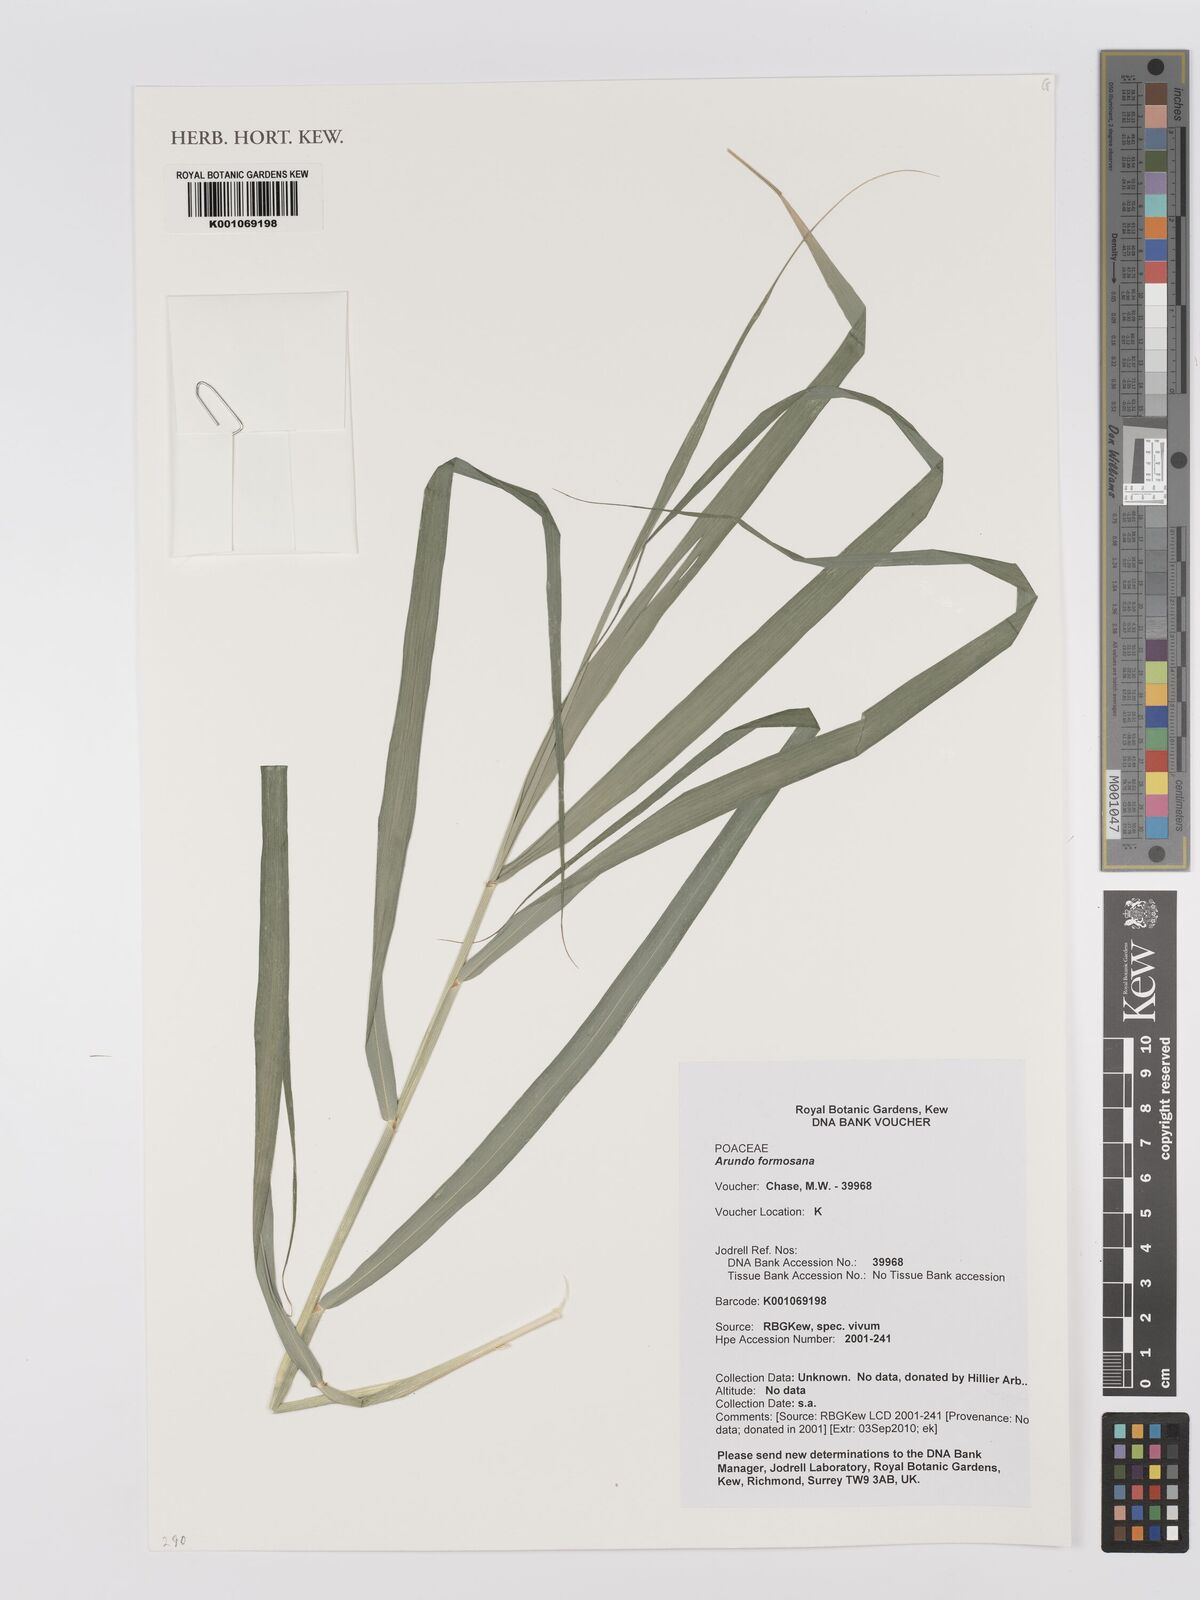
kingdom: Plantae
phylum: Tracheophyta
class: Liliopsida
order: Poales
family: Poaceae
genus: Arundo
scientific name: Arundo formosana
